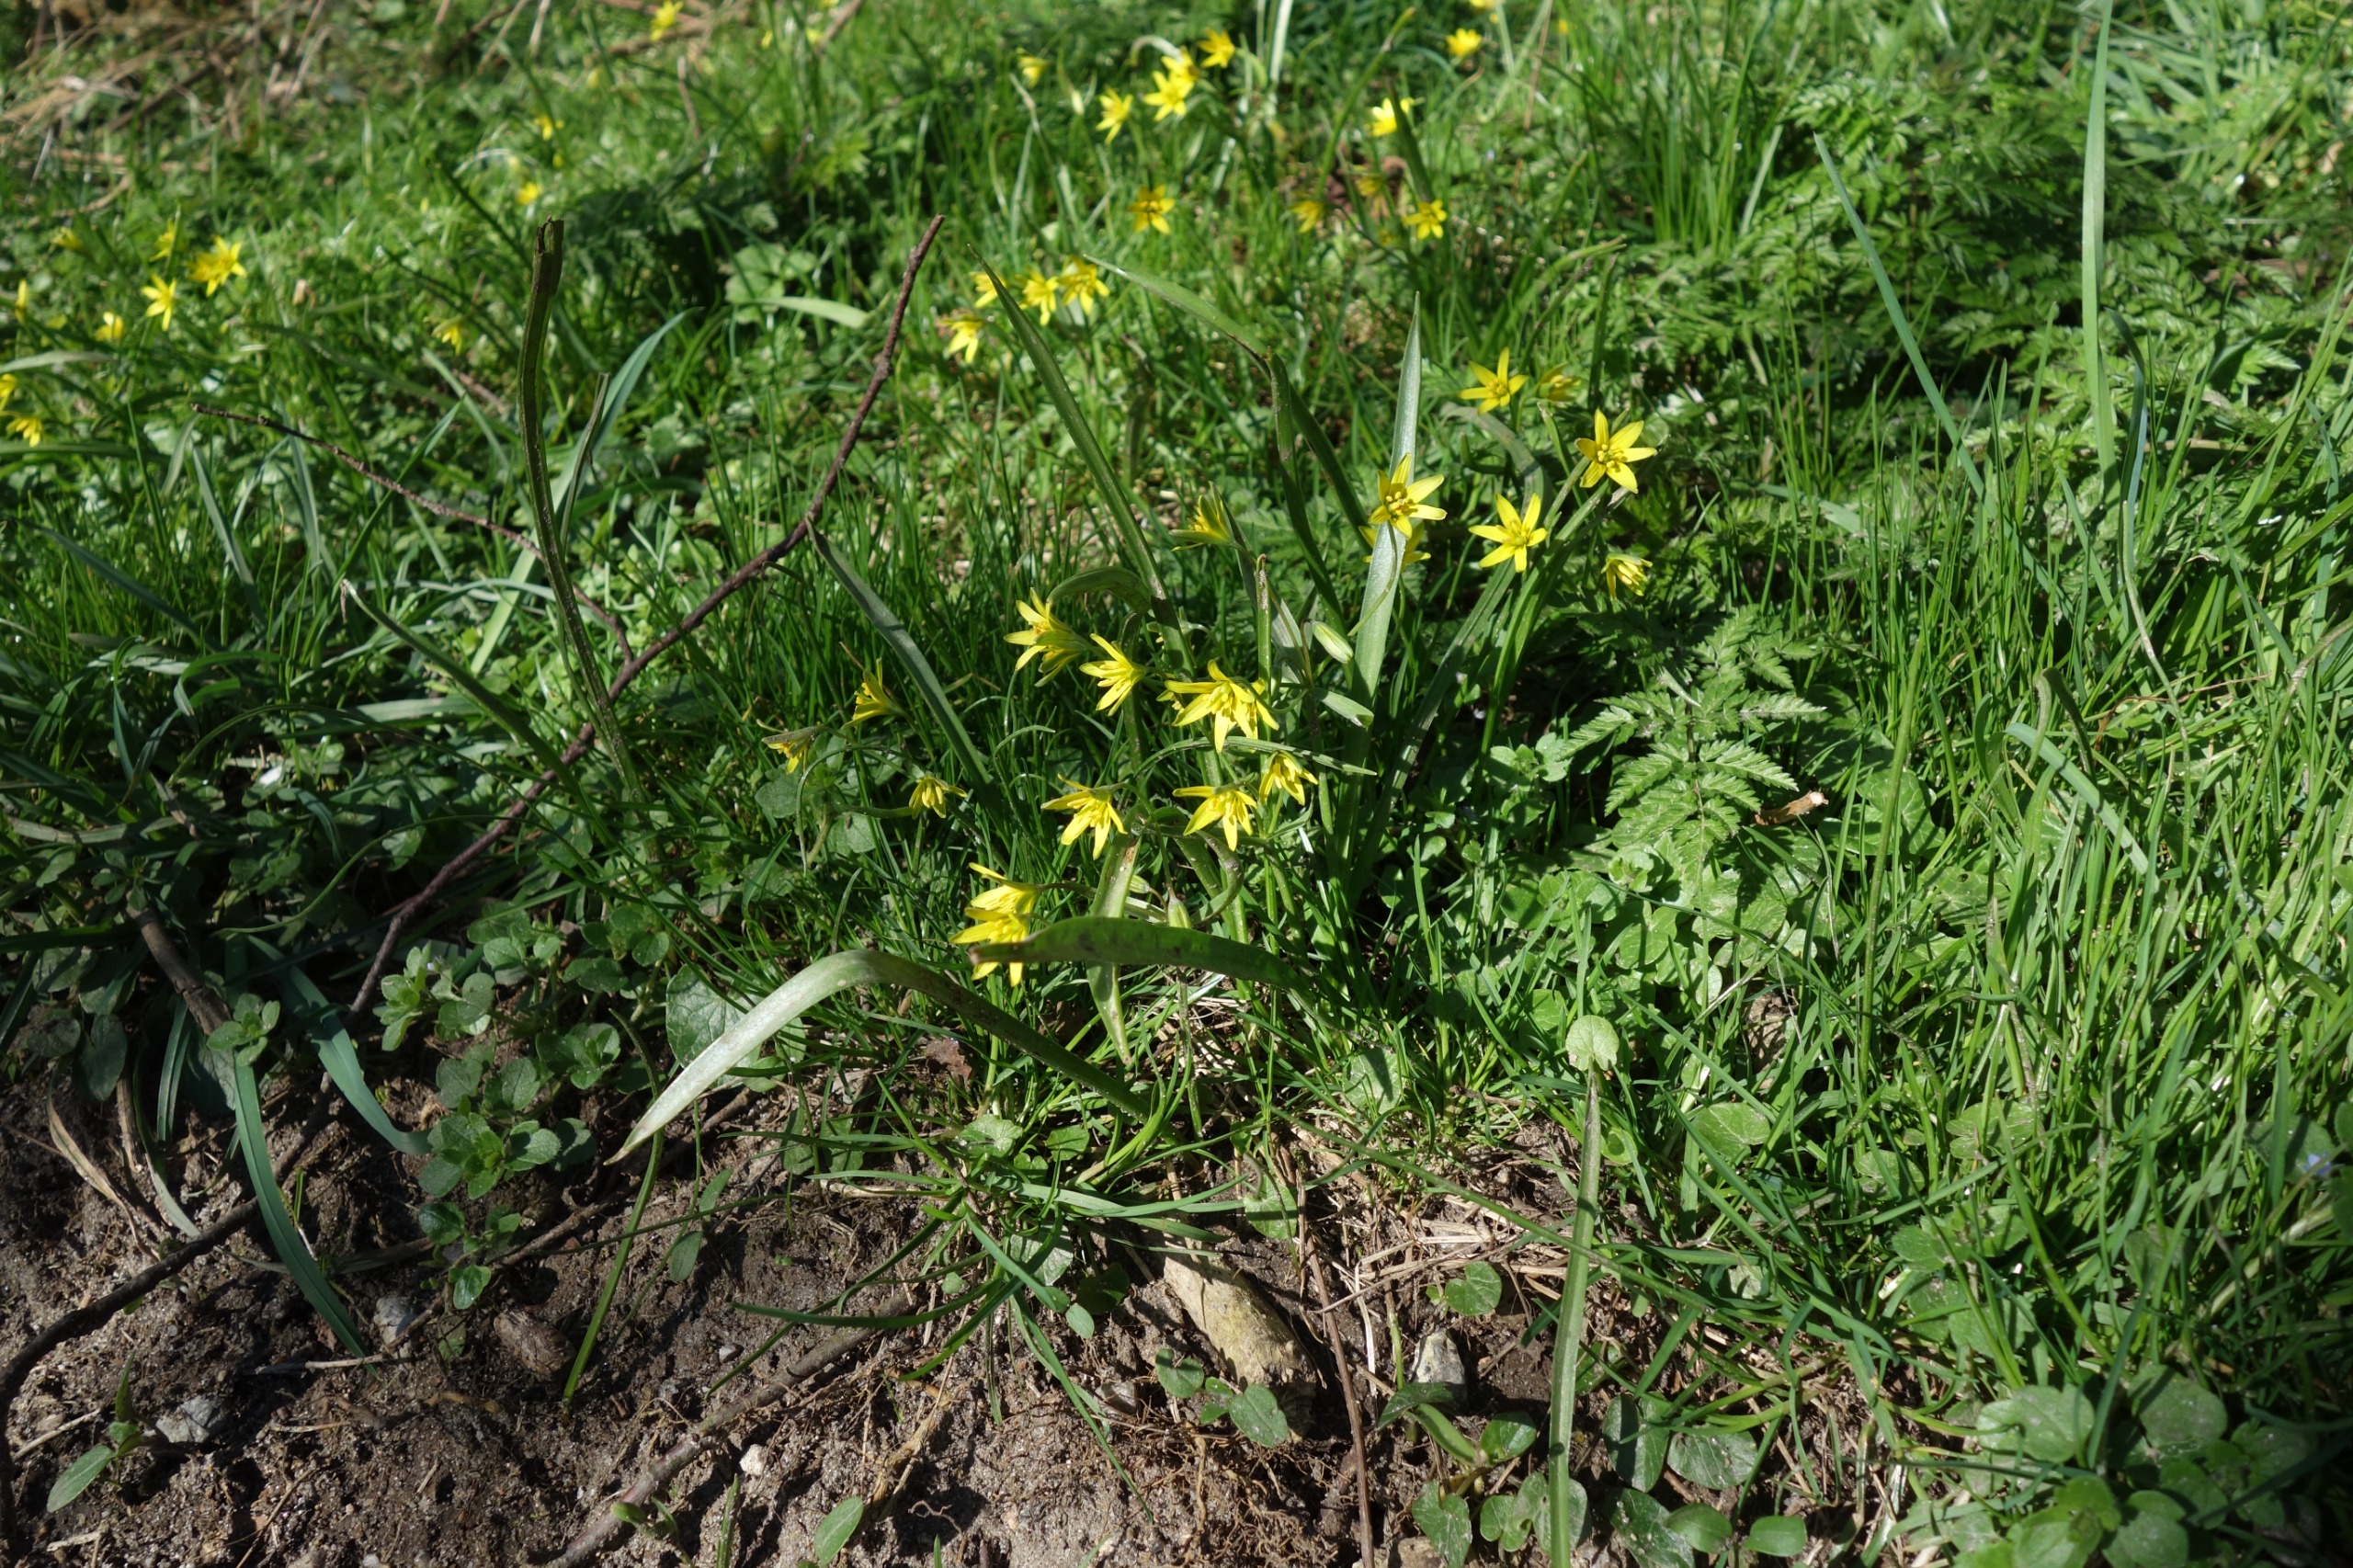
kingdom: Plantae
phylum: Tracheophyta
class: Liliopsida
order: Liliales
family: Liliaceae
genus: Gagea
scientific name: Gagea lutea
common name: Almindelig guldstjerne
